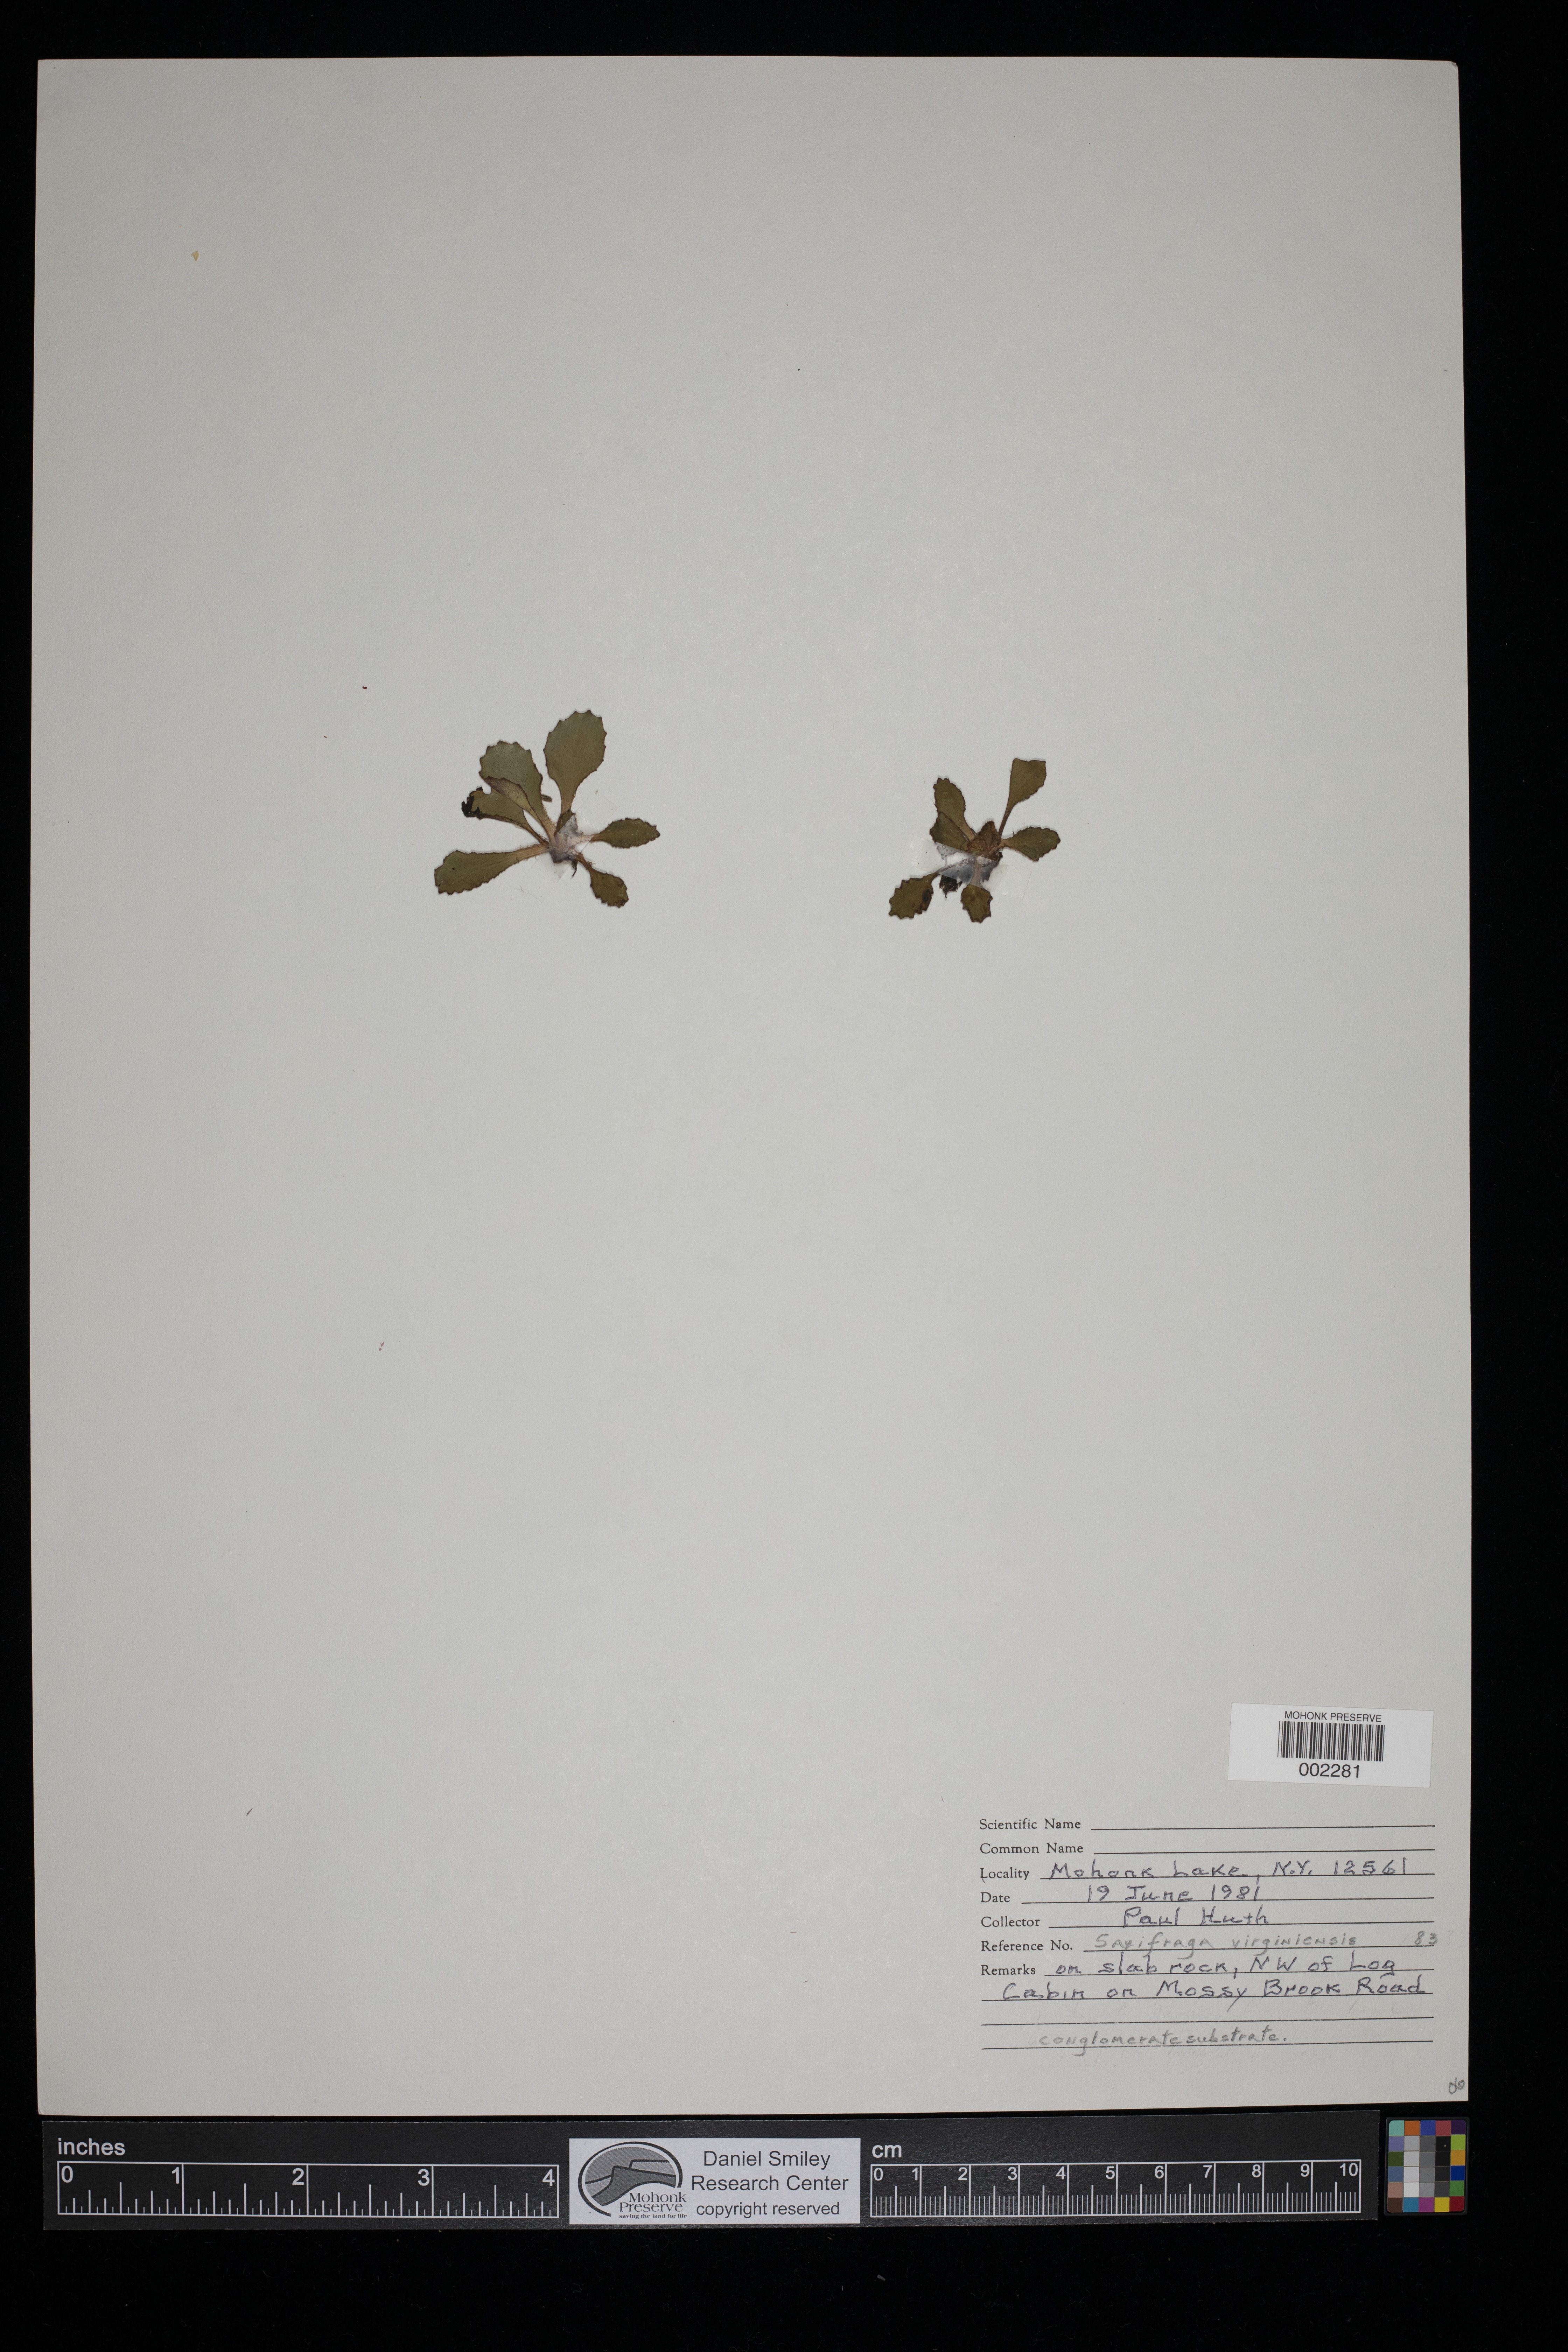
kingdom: Plantae
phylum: Tracheophyta
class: Magnoliopsida
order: Saxifragales
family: Saxifragaceae
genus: Micranthes
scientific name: Micranthes virginiensis
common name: Early saxifrage
